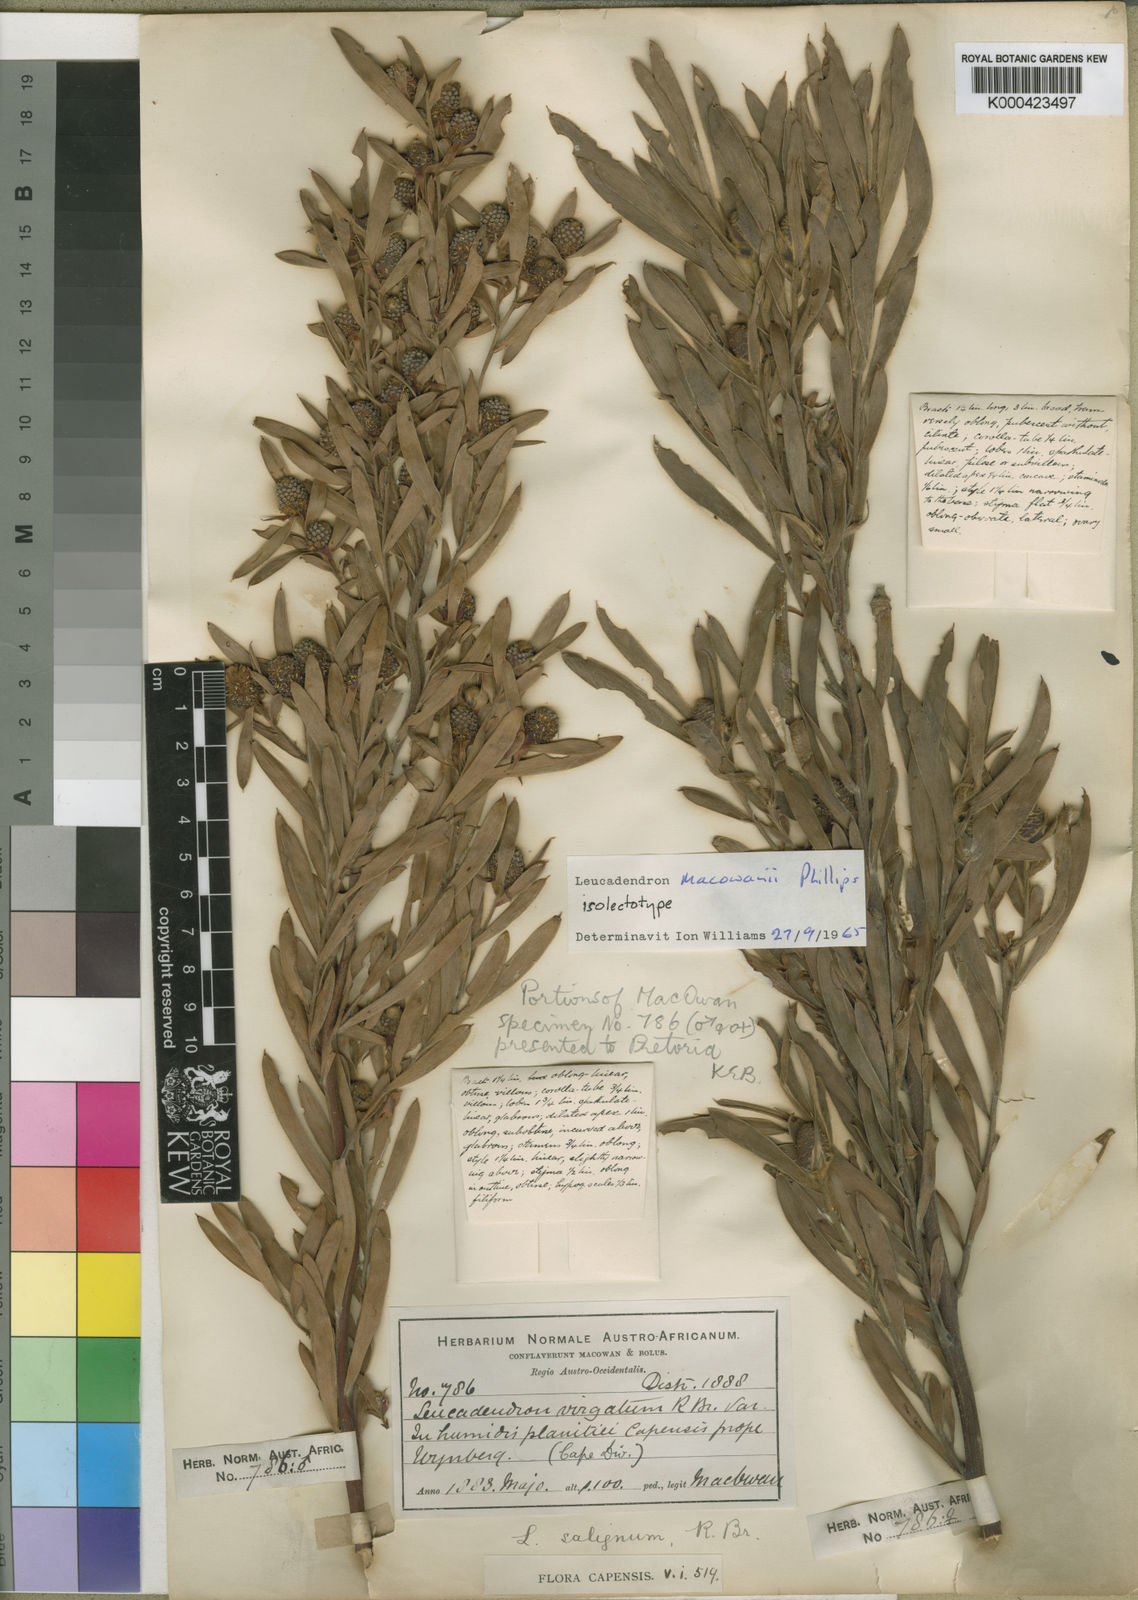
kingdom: Plantae
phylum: Tracheophyta
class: Magnoliopsida
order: Proteales
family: Proteaceae
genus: Leucadendron
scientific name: Leucadendron macowanii
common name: Acacia-leaf conebush
